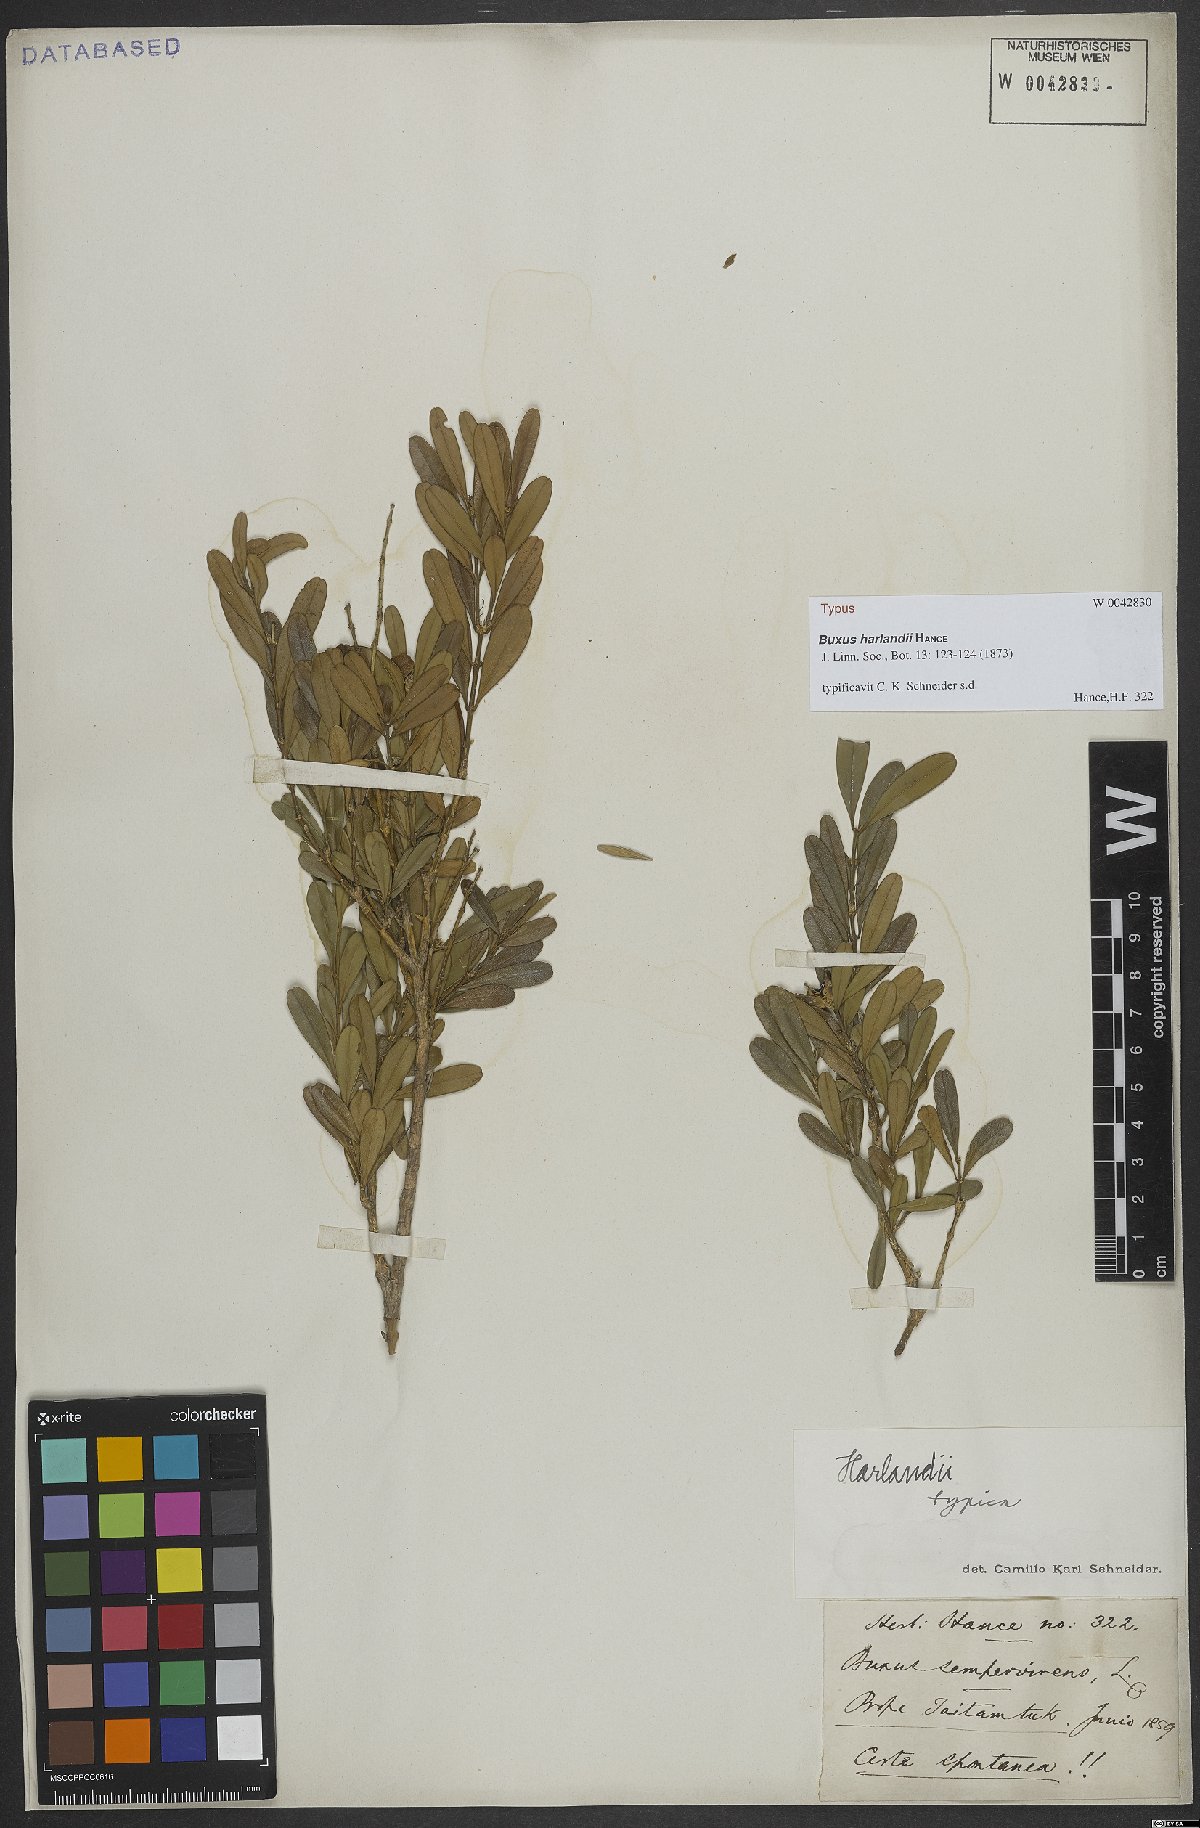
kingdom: Plantae
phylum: Tracheophyta
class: Magnoliopsida
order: Buxales
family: Buxaceae
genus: Buxus
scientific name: Buxus harlandii
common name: Harland's boxwood
